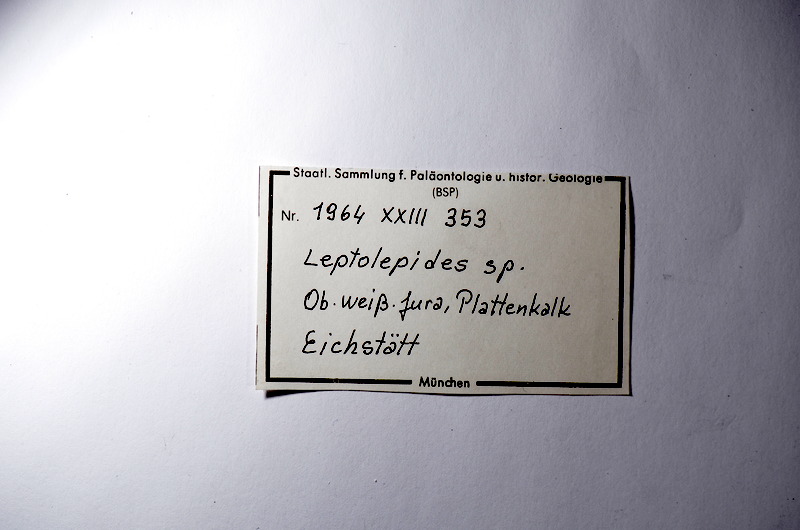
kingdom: Animalia
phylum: Chordata
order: Salmoniformes
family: Orthogonikleithridae
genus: Leptolepides
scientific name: Leptolepides
